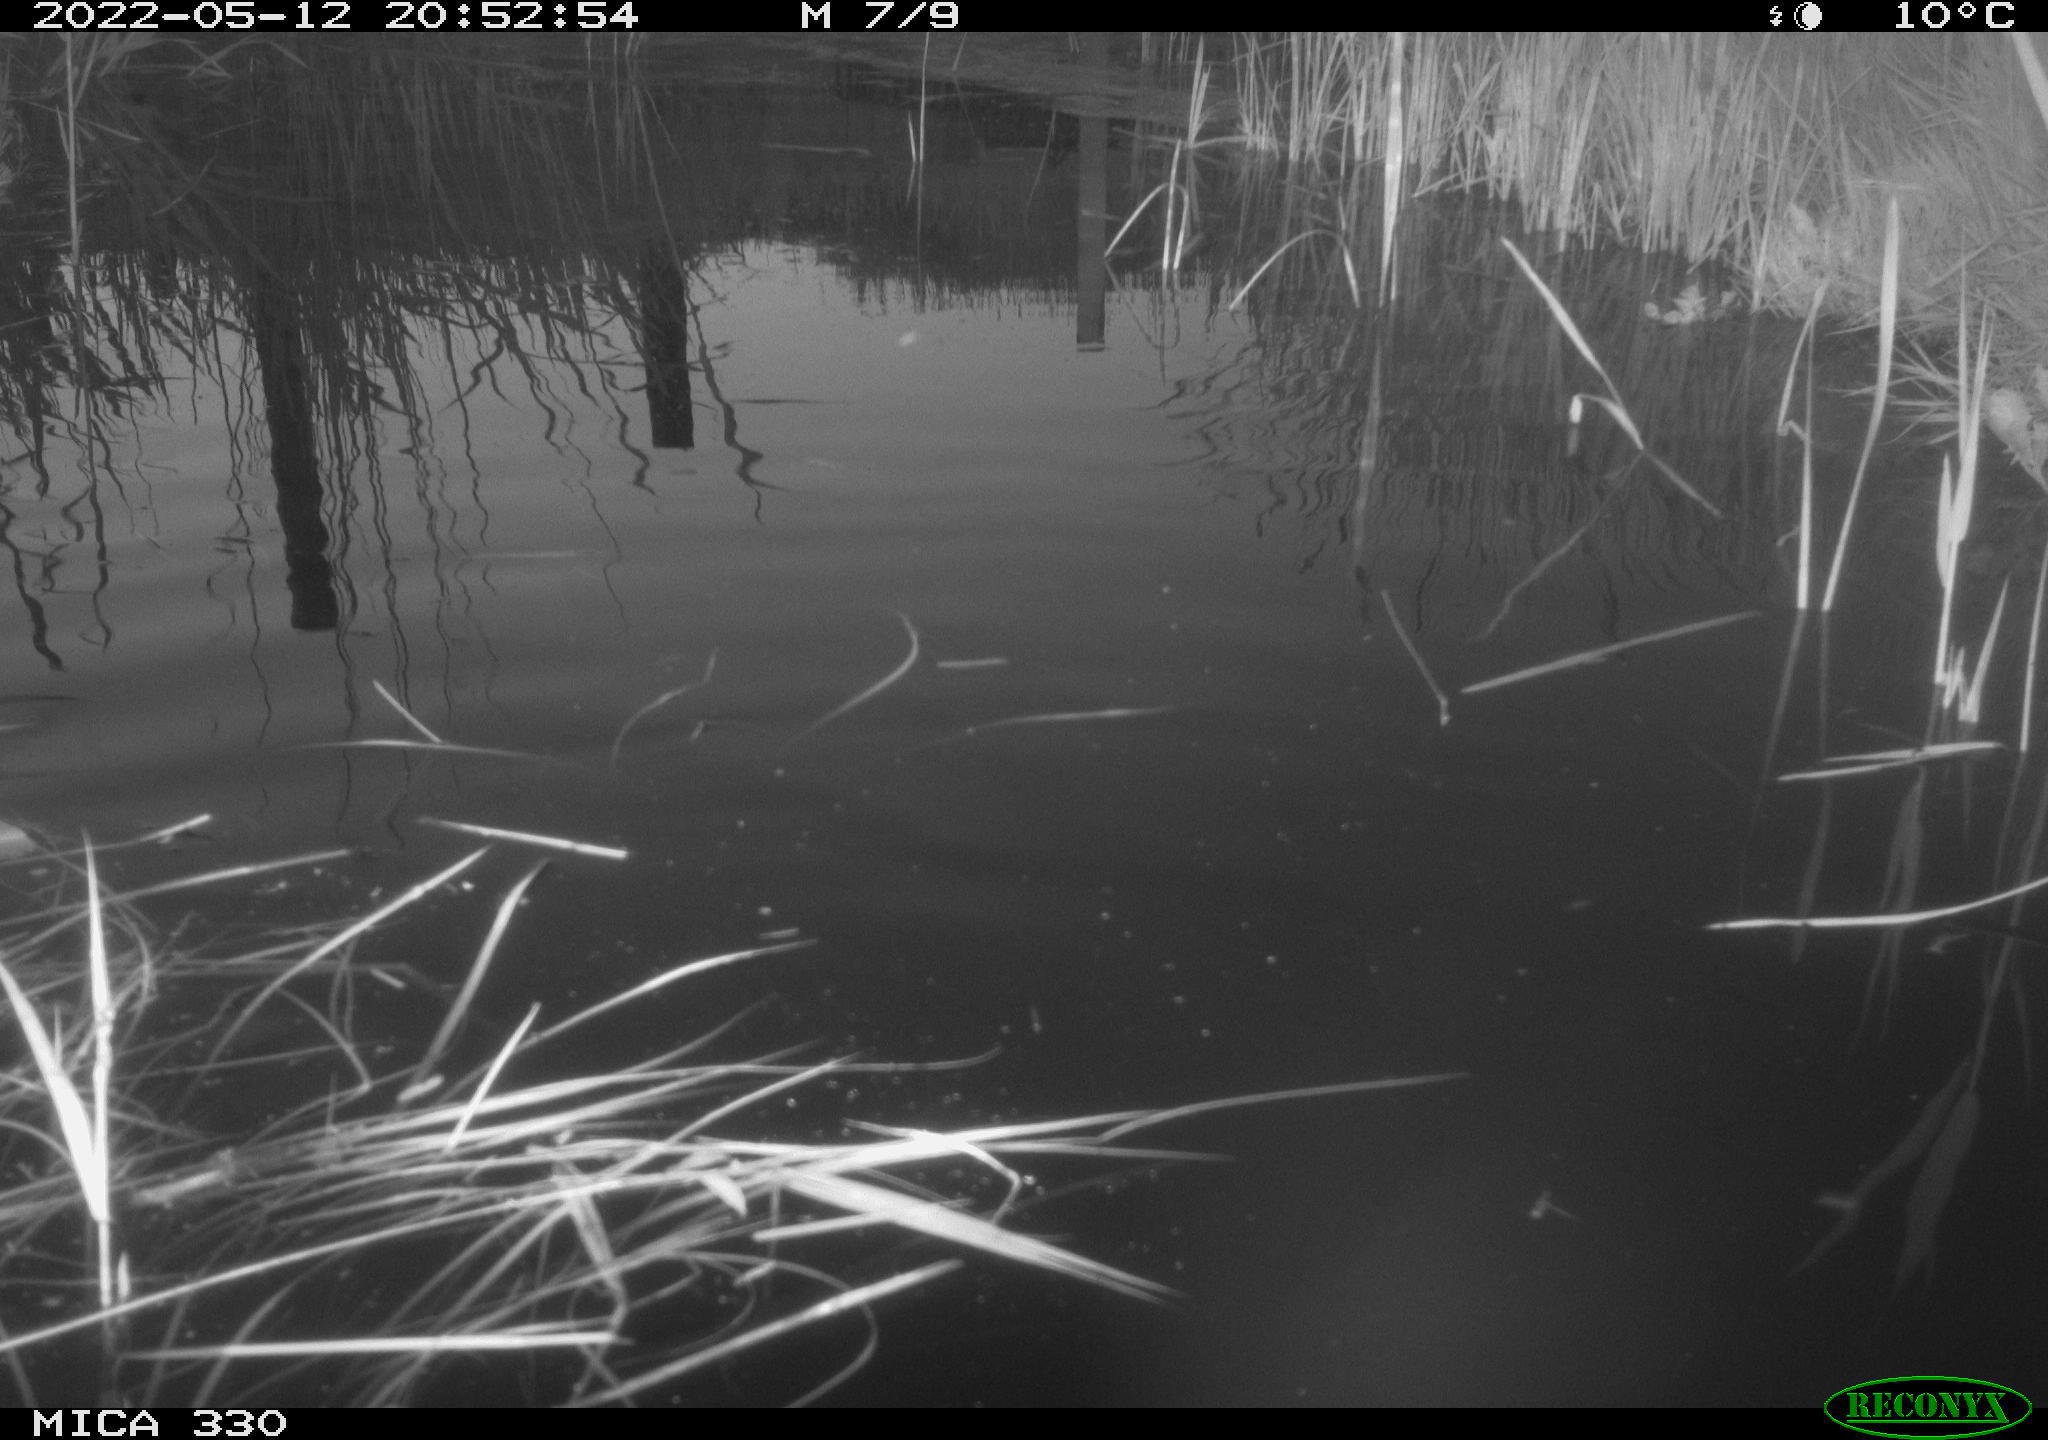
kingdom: Animalia
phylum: Chordata
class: Aves
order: Anseriformes
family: Anatidae
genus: Anas
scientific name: Anas platyrhynchos
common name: Mallard
